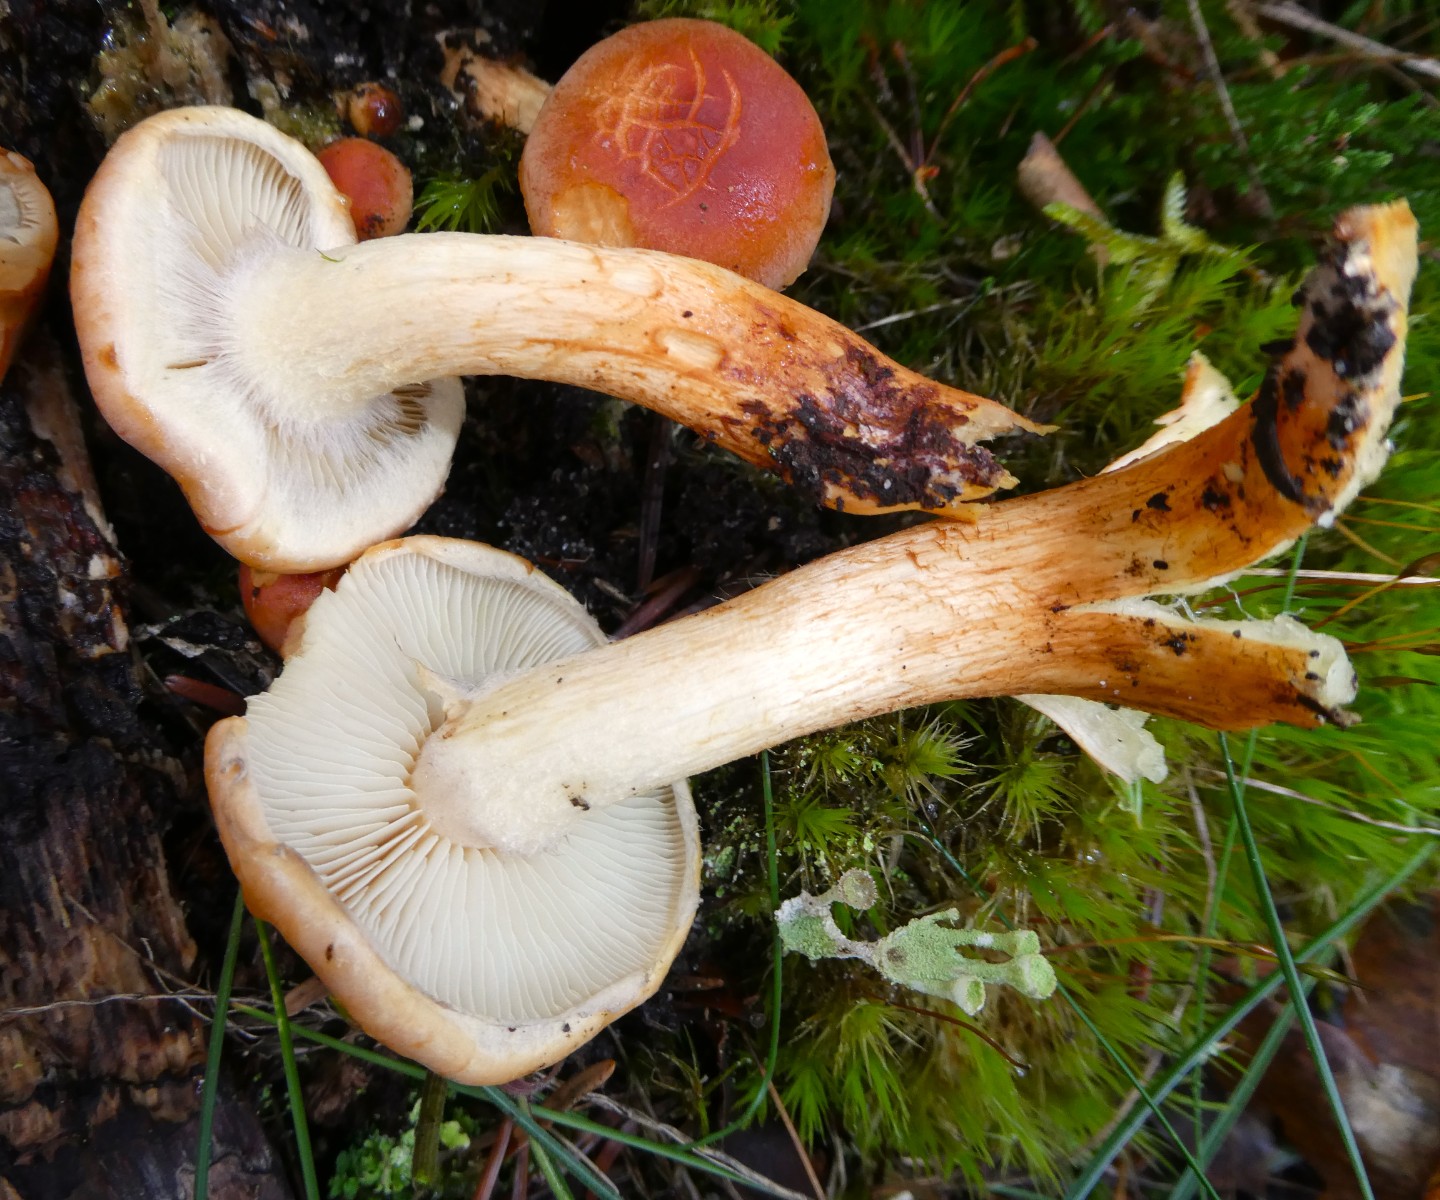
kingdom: Fungi
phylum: Basidiomycota
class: Agaricomycetes
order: Agaricales
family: Strophariaceae
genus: Hypholoma
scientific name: Hypholoma lateritium
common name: teglrød svovlhat
